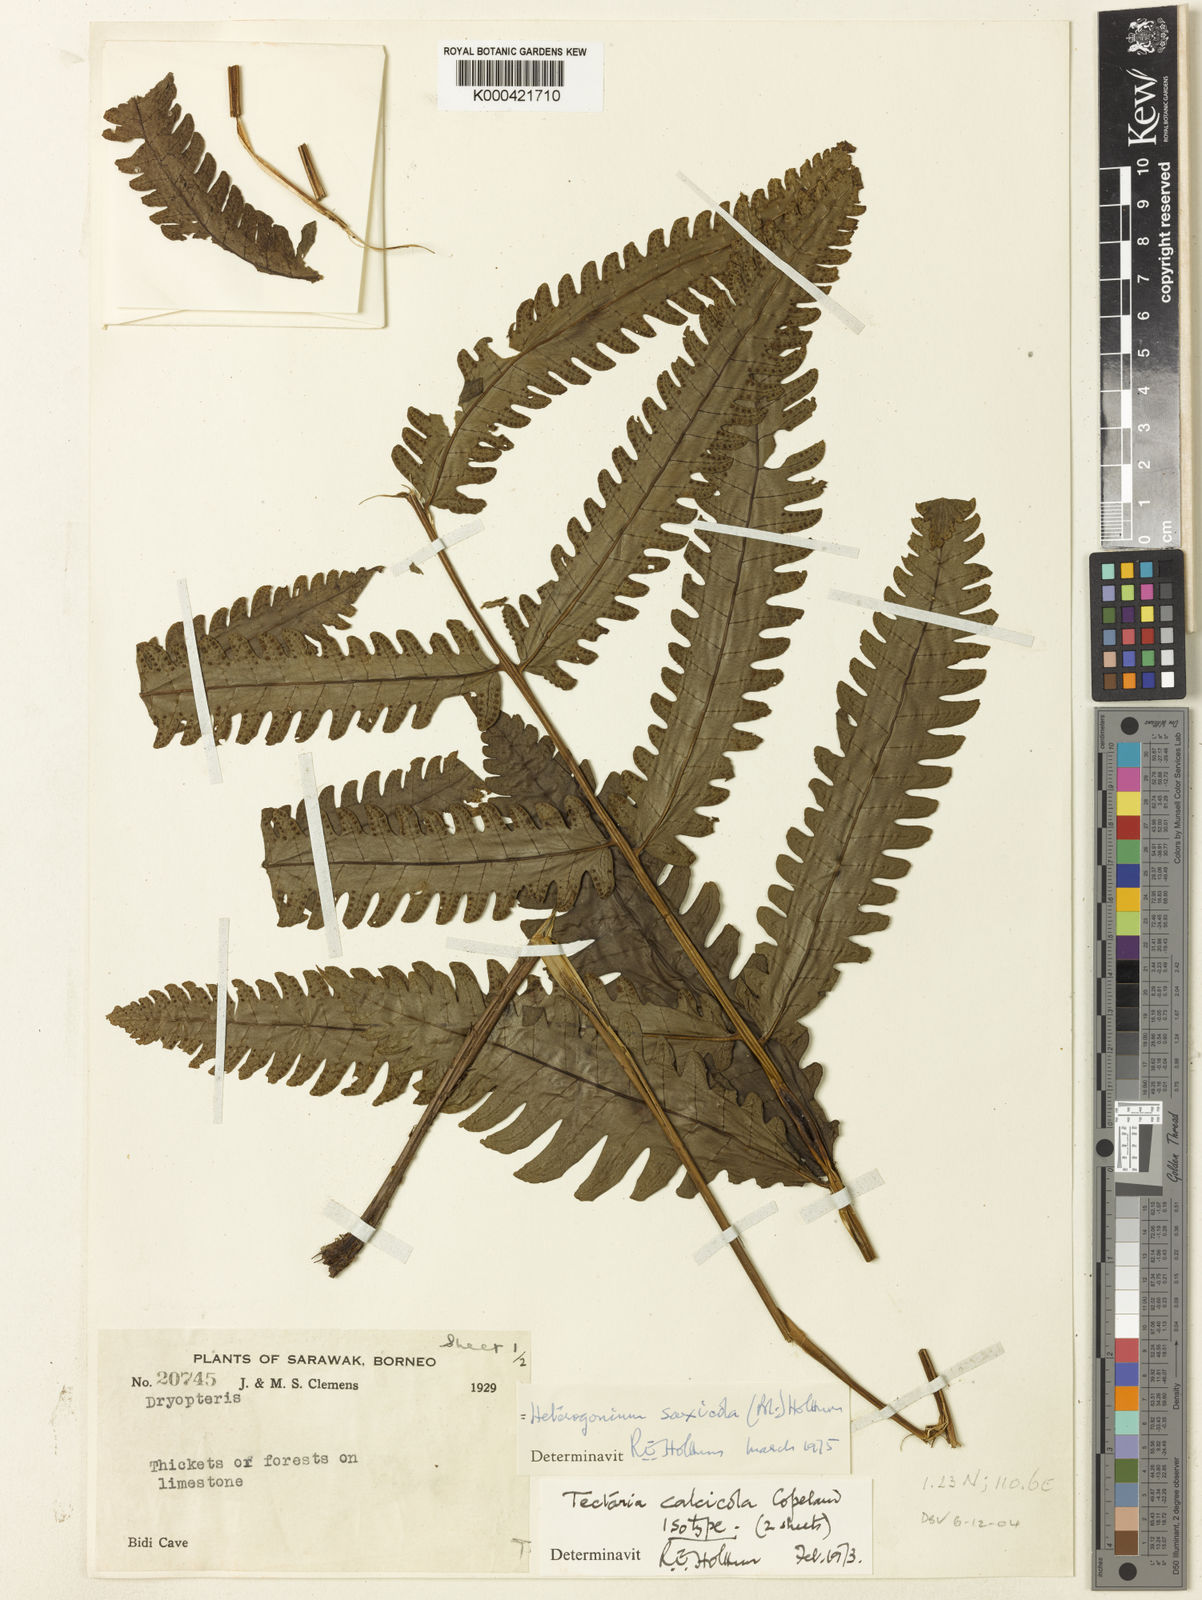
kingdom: Plantae
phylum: Tracheophyta
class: Polypodiopsida
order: Polypodiales
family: Tectariaceae
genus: Tectaria
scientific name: Tectaria gigantea
